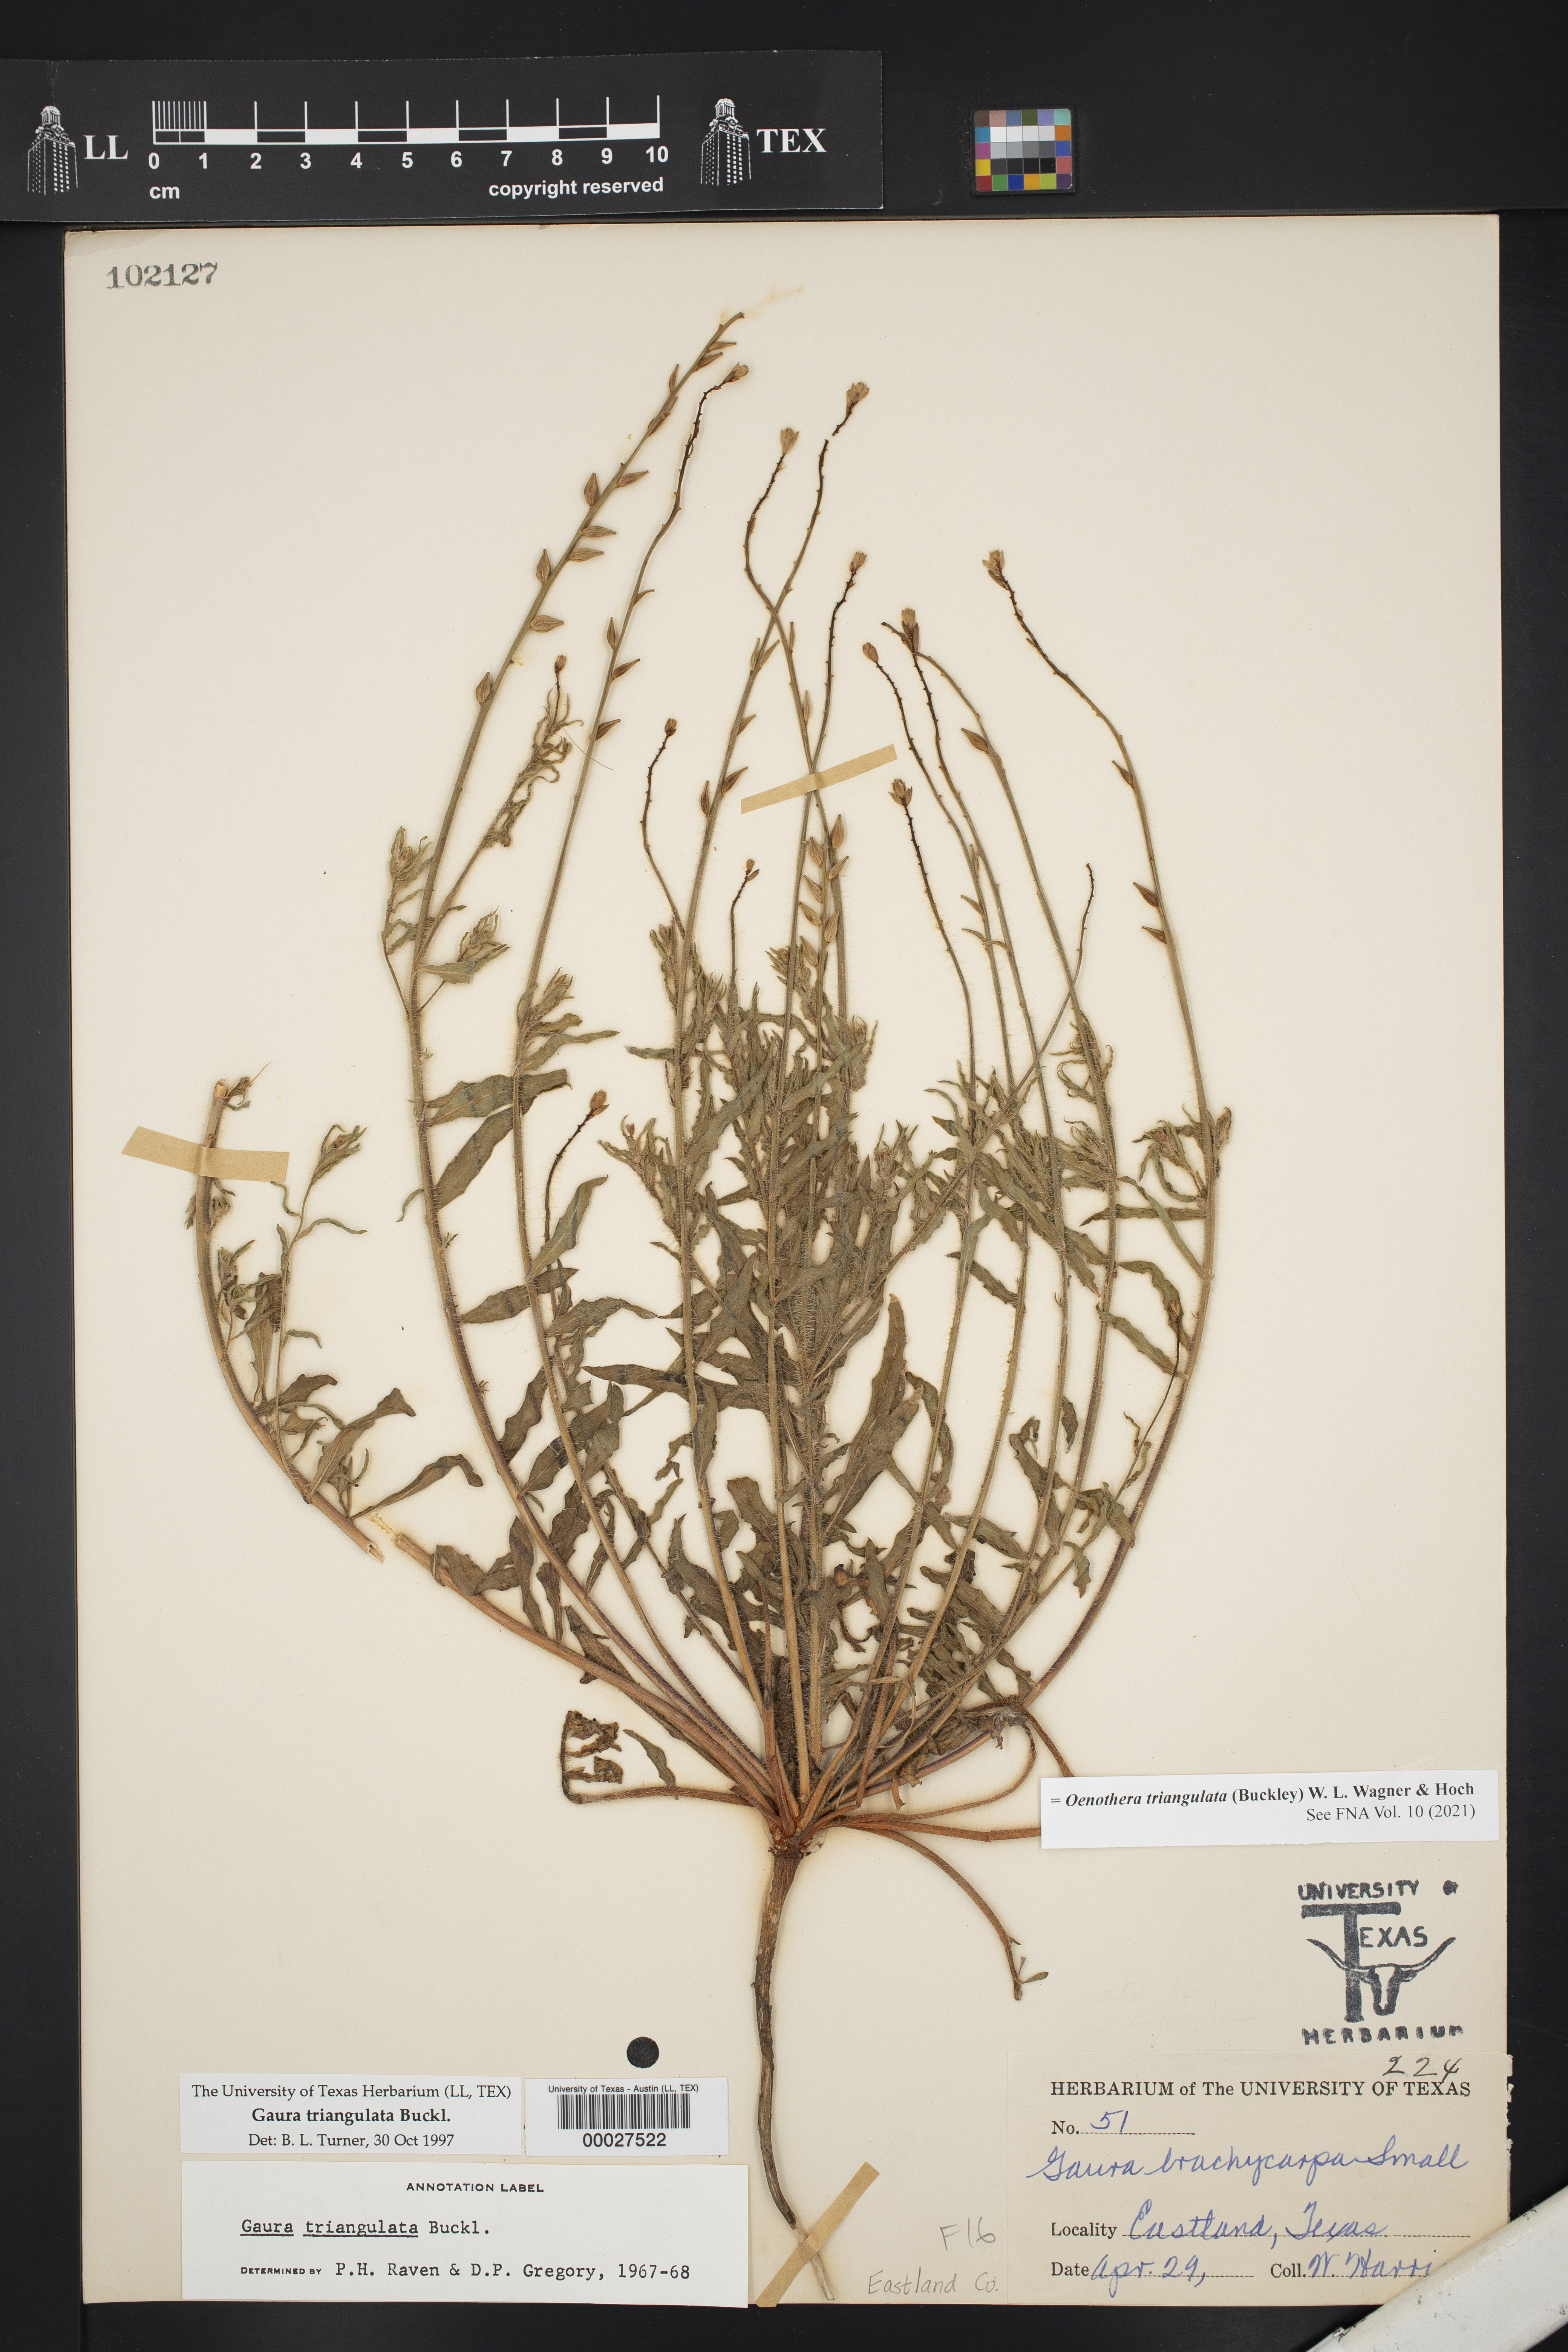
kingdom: Plantae
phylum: Tracheophyta
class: Magnoliopsida
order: Myrtales
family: Onagraceae
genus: Oenothera
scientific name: Oenothera triangulata
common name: Prairie beeblossom
